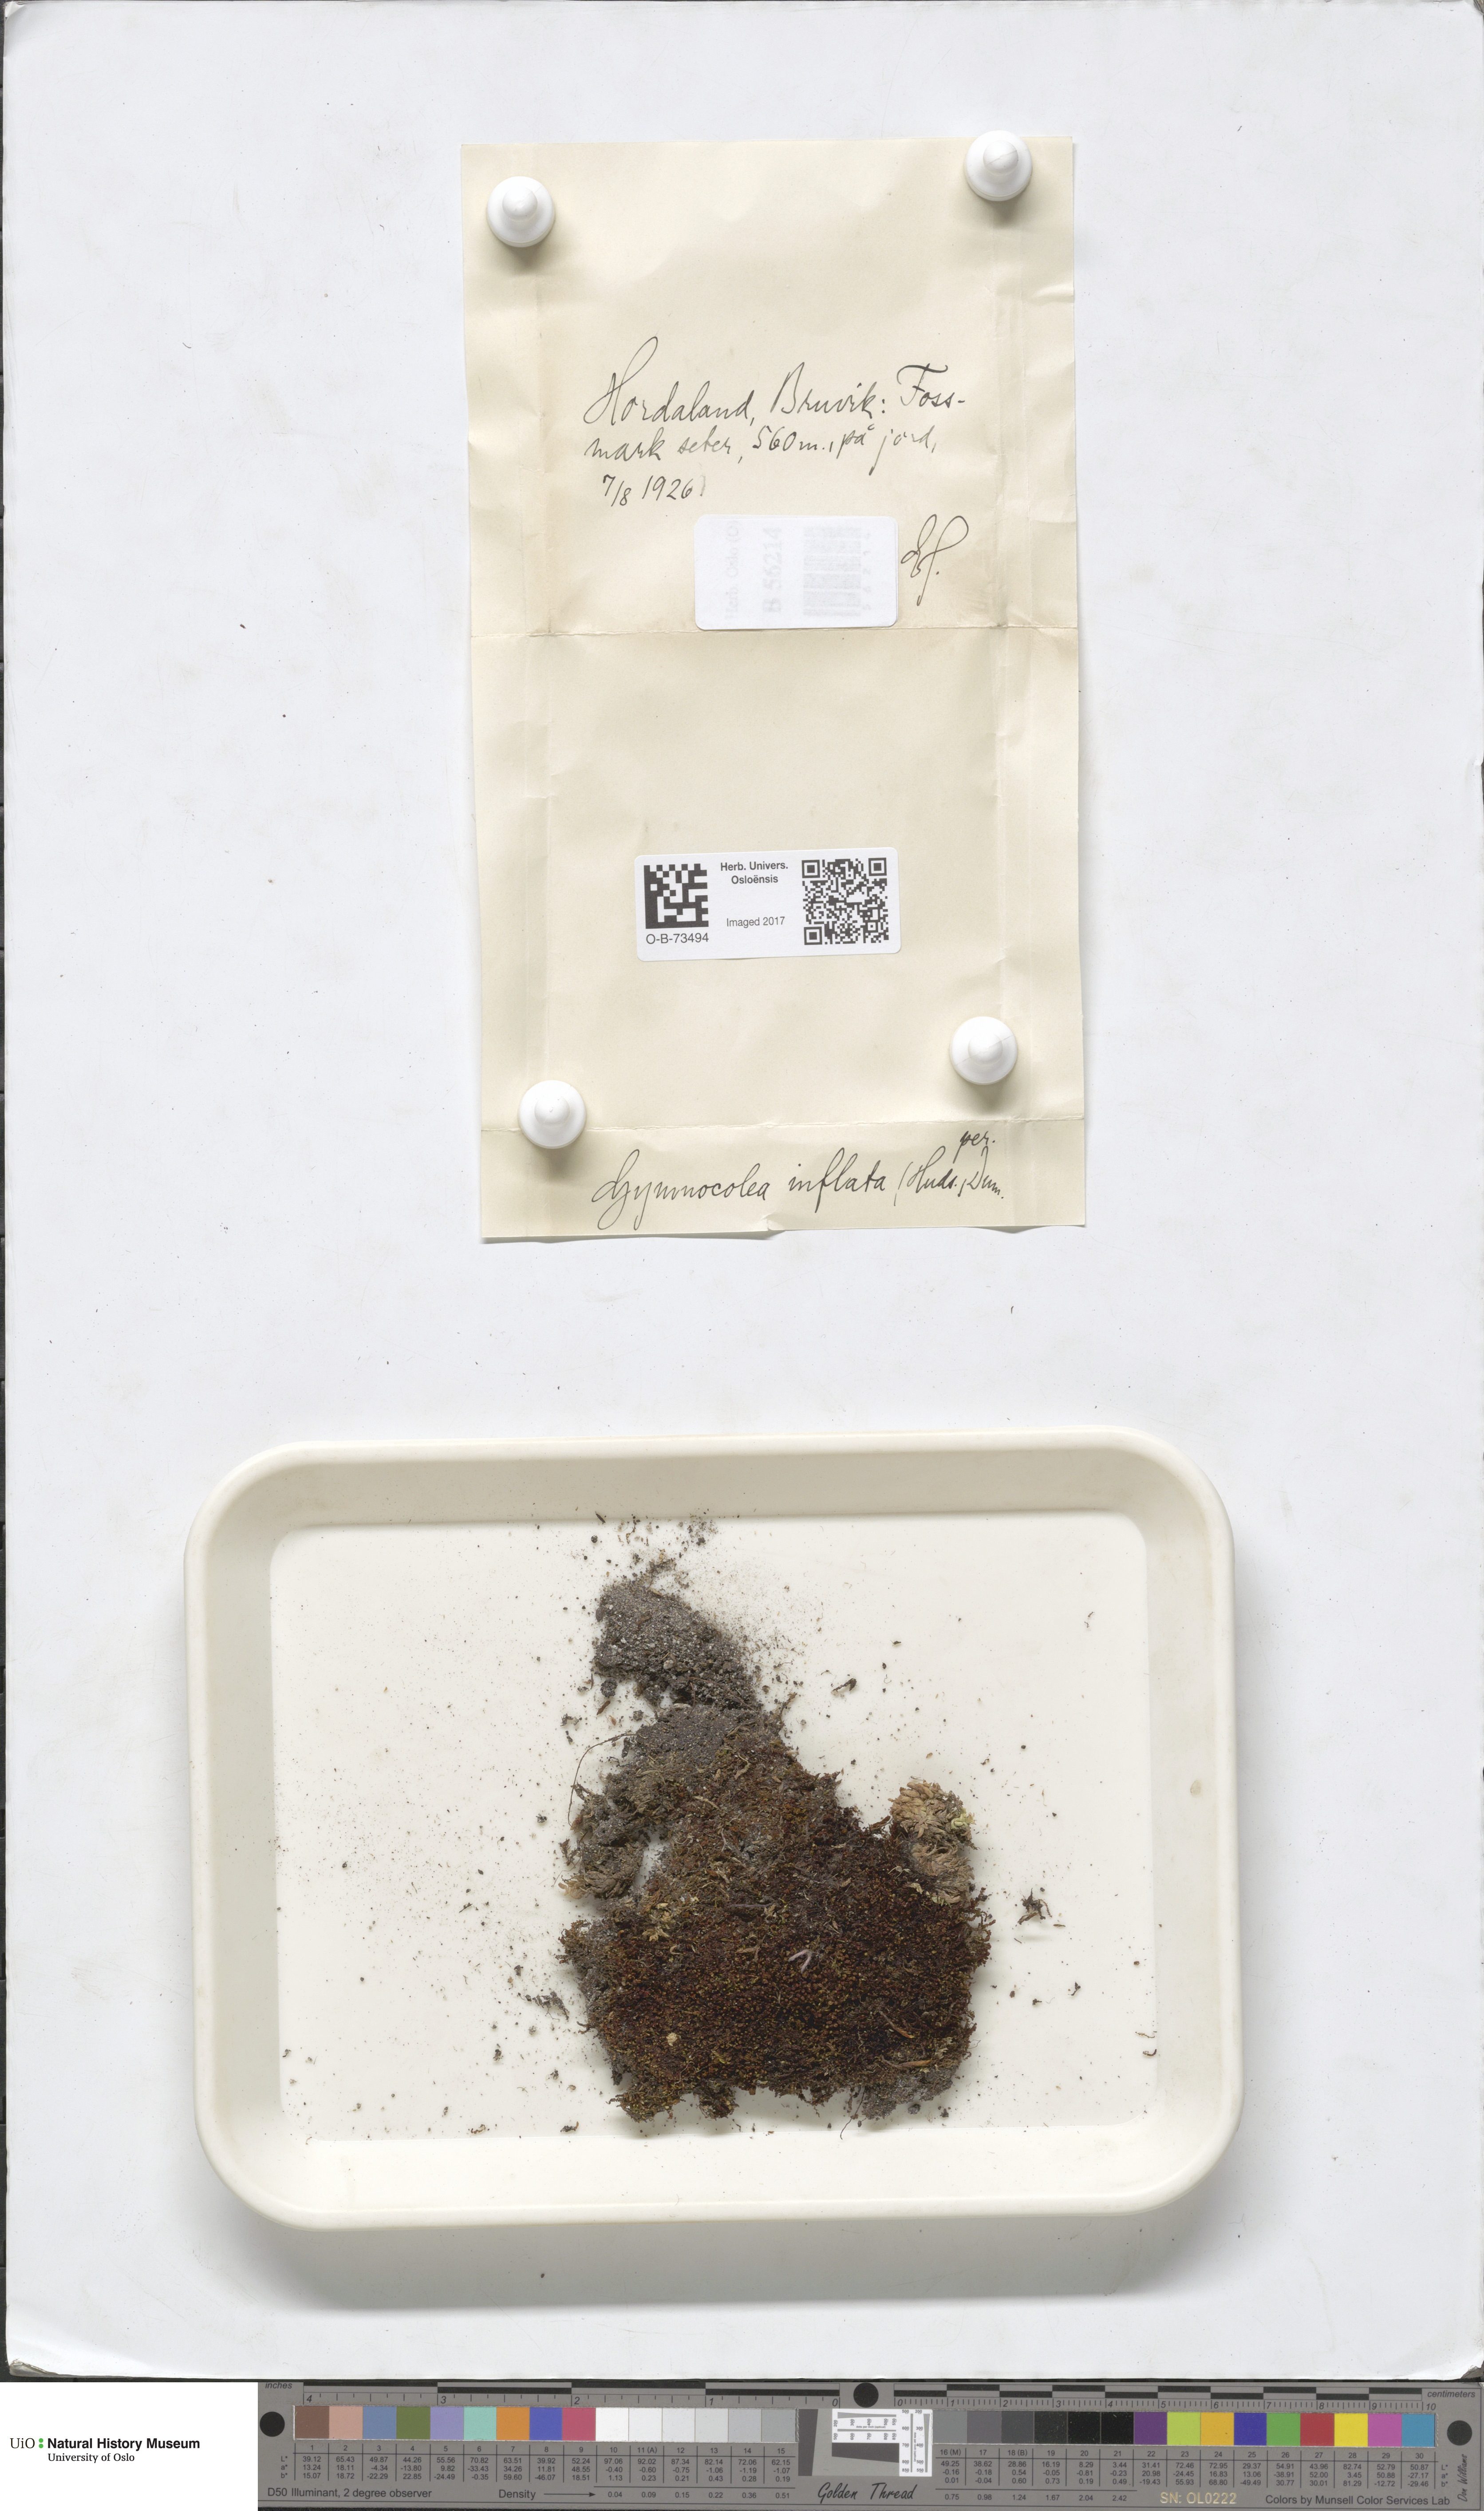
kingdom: Plantae
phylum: Marchantiophyta
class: Jungermanniopsida
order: Jungermanniales
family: Anastrophyllaceae
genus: Gymnocolea
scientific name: Gymnocolea inflata
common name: Inflated notchwort
